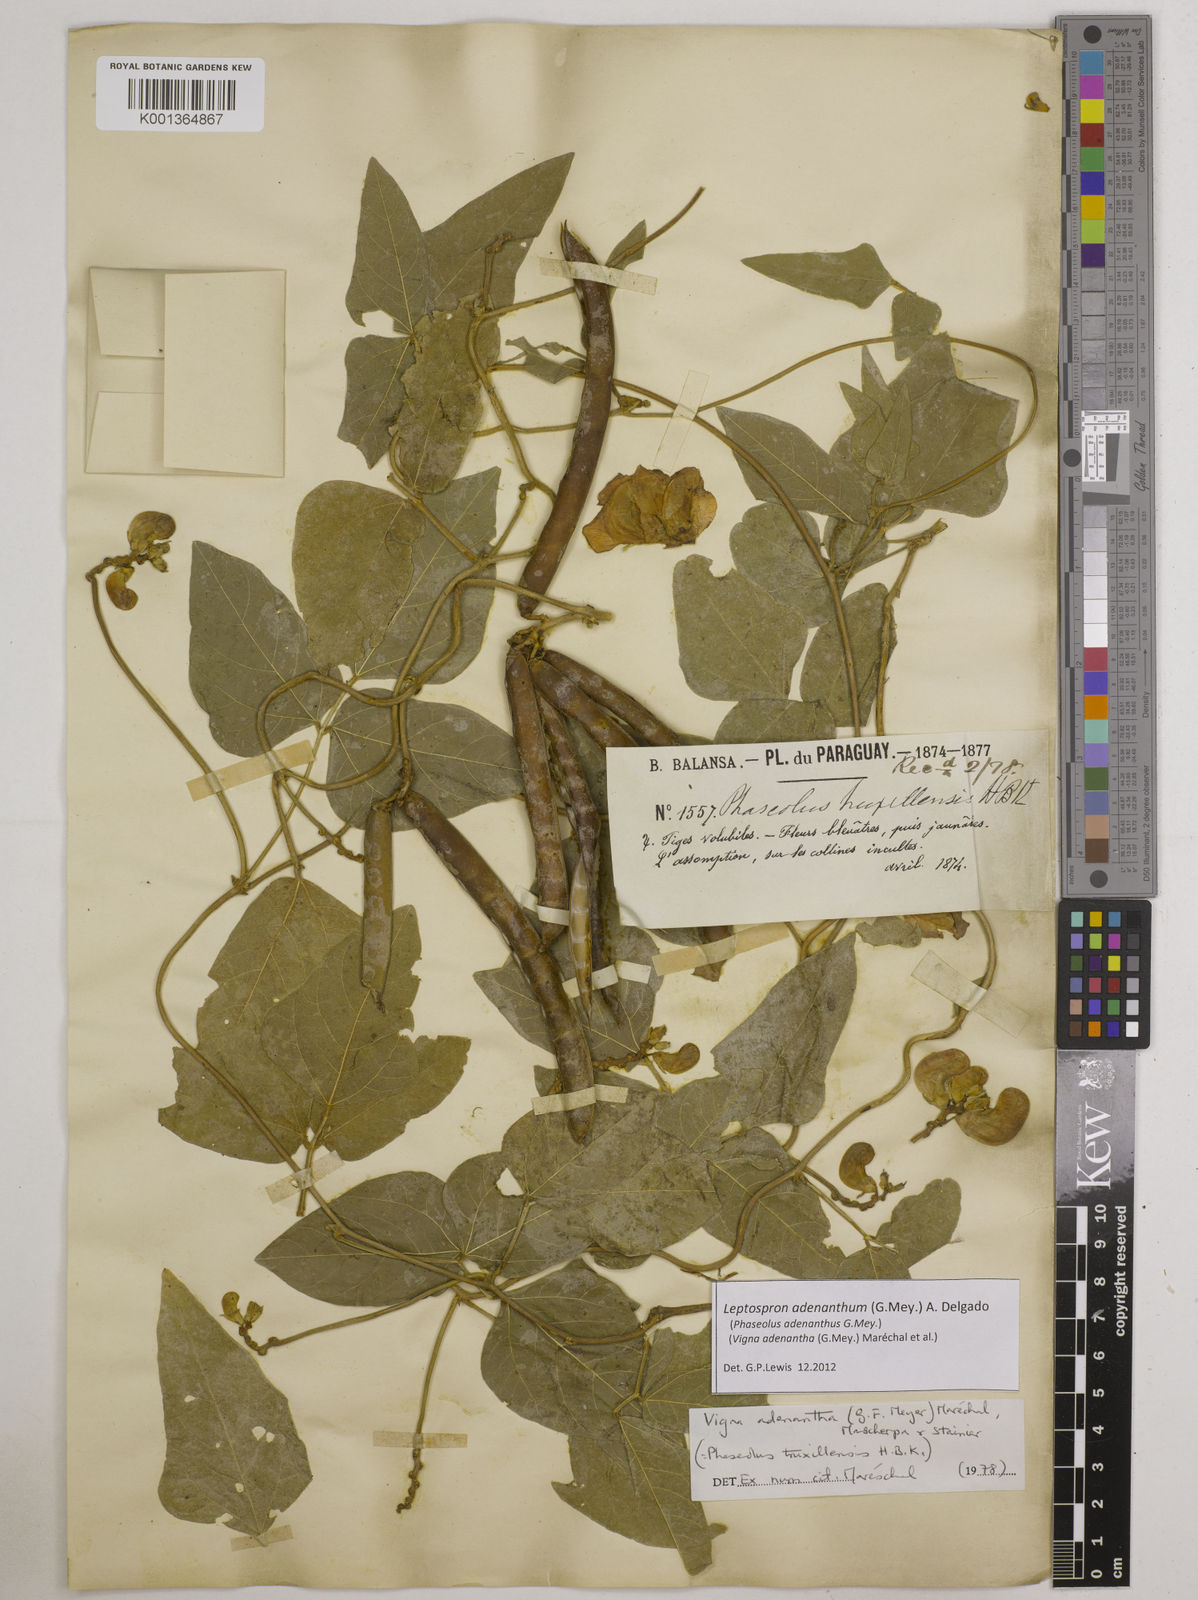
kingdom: Plantae
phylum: Tracheophyta
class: Magnoliopsida
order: Fabales
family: Fabaceae
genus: Leptospron
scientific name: Leptospron adenanthum
